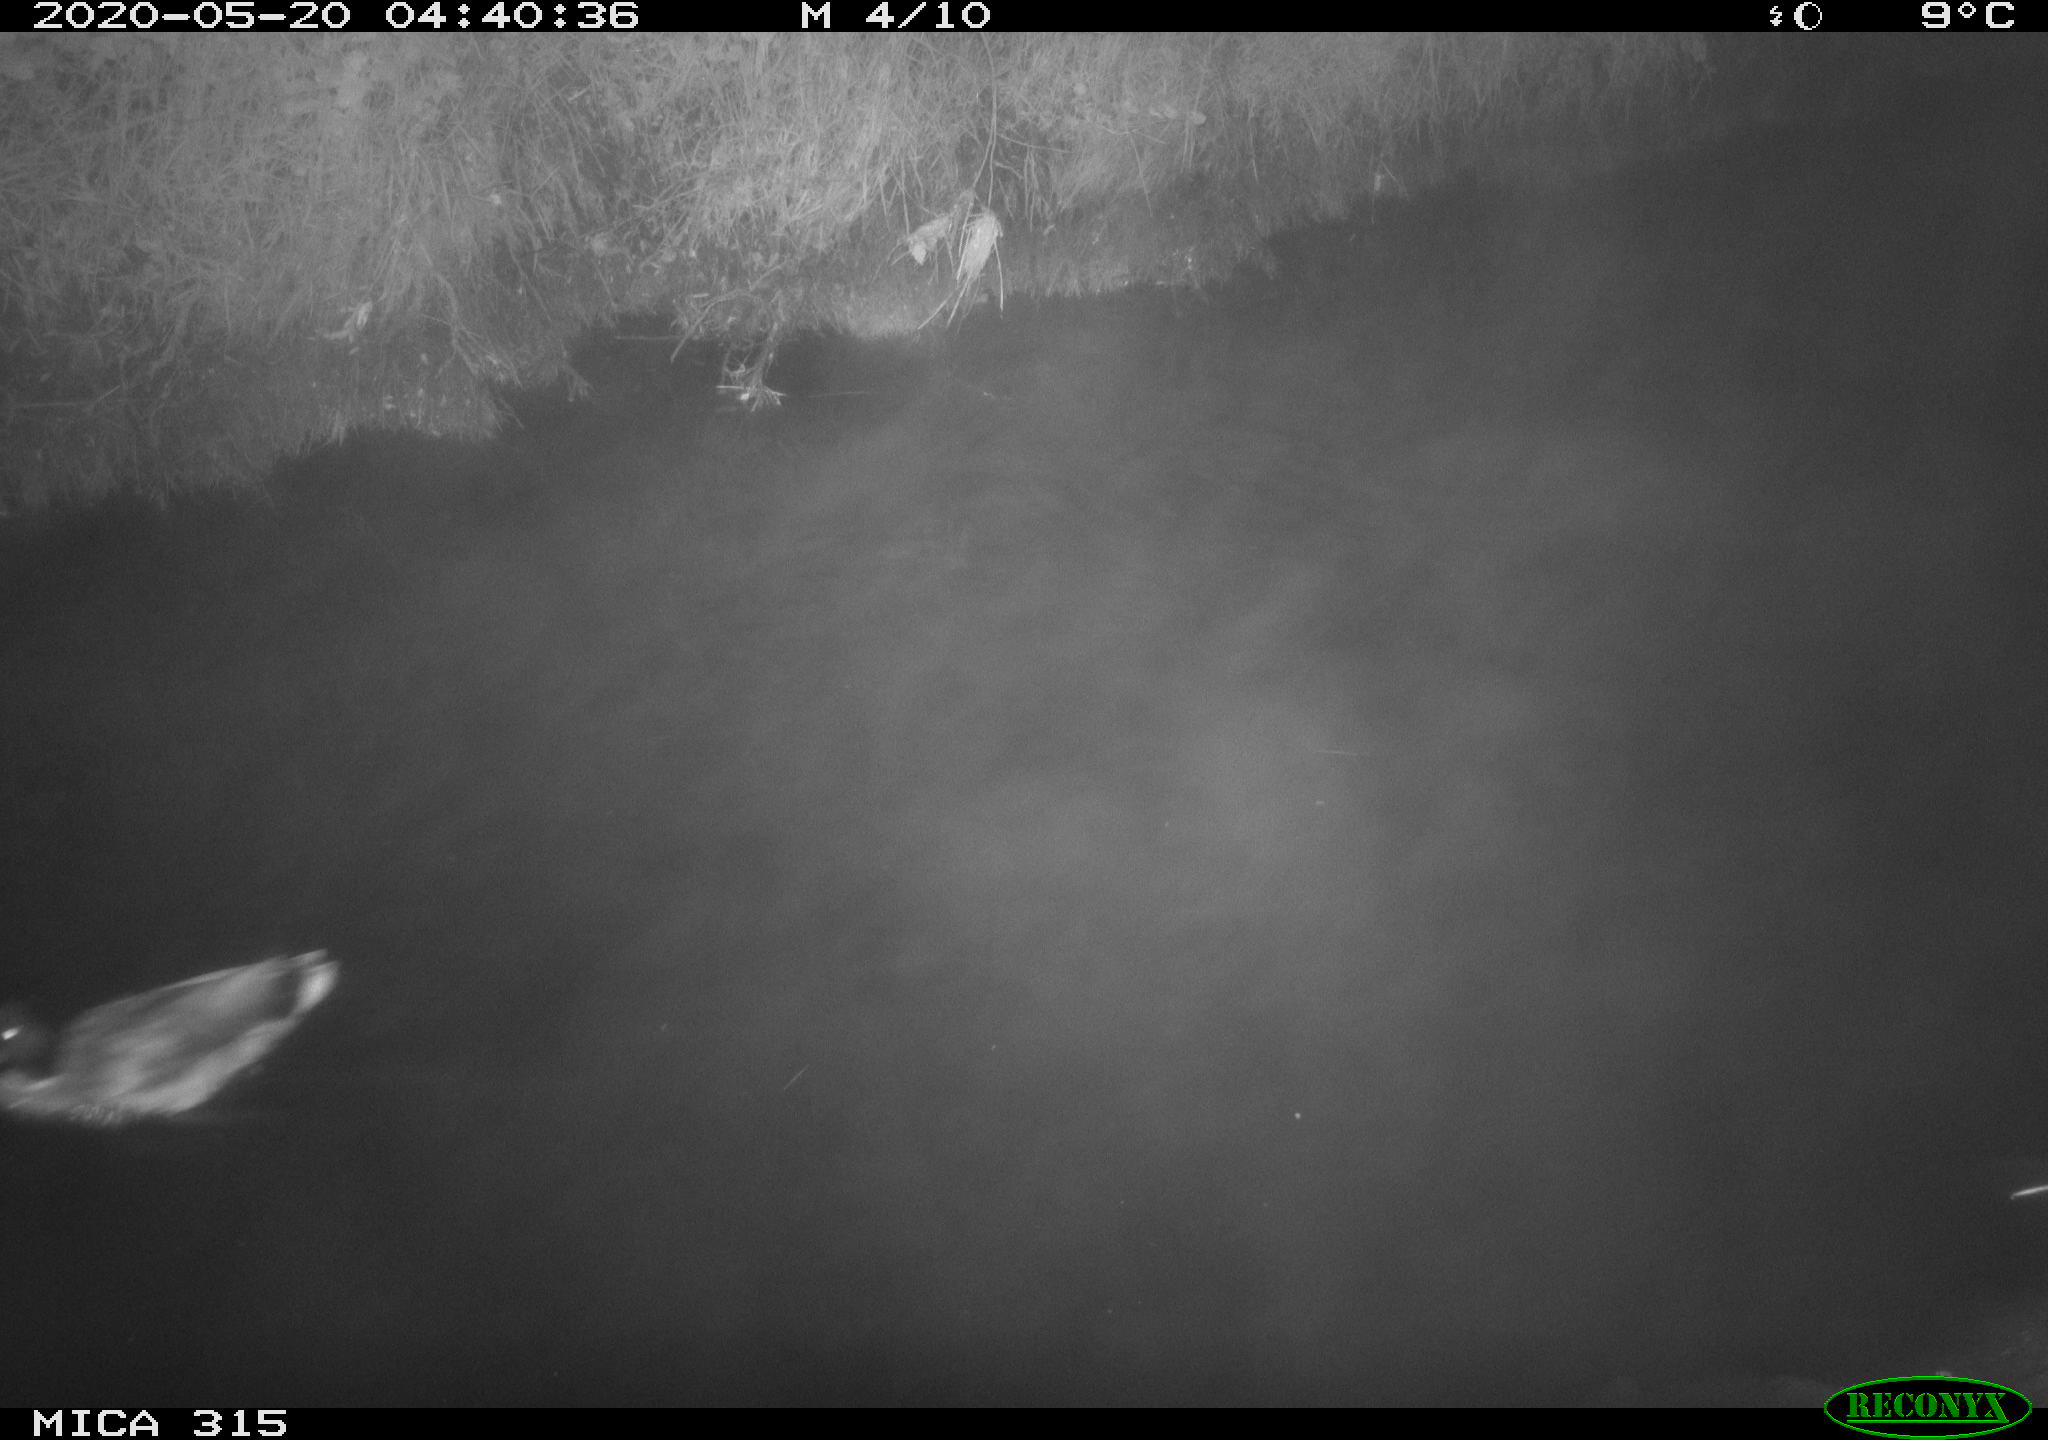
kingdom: Animalia
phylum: Chordata
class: Aves
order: Anseriformes
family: Anatidae
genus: Anas
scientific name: Anas platyrhynchos
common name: Mallard
